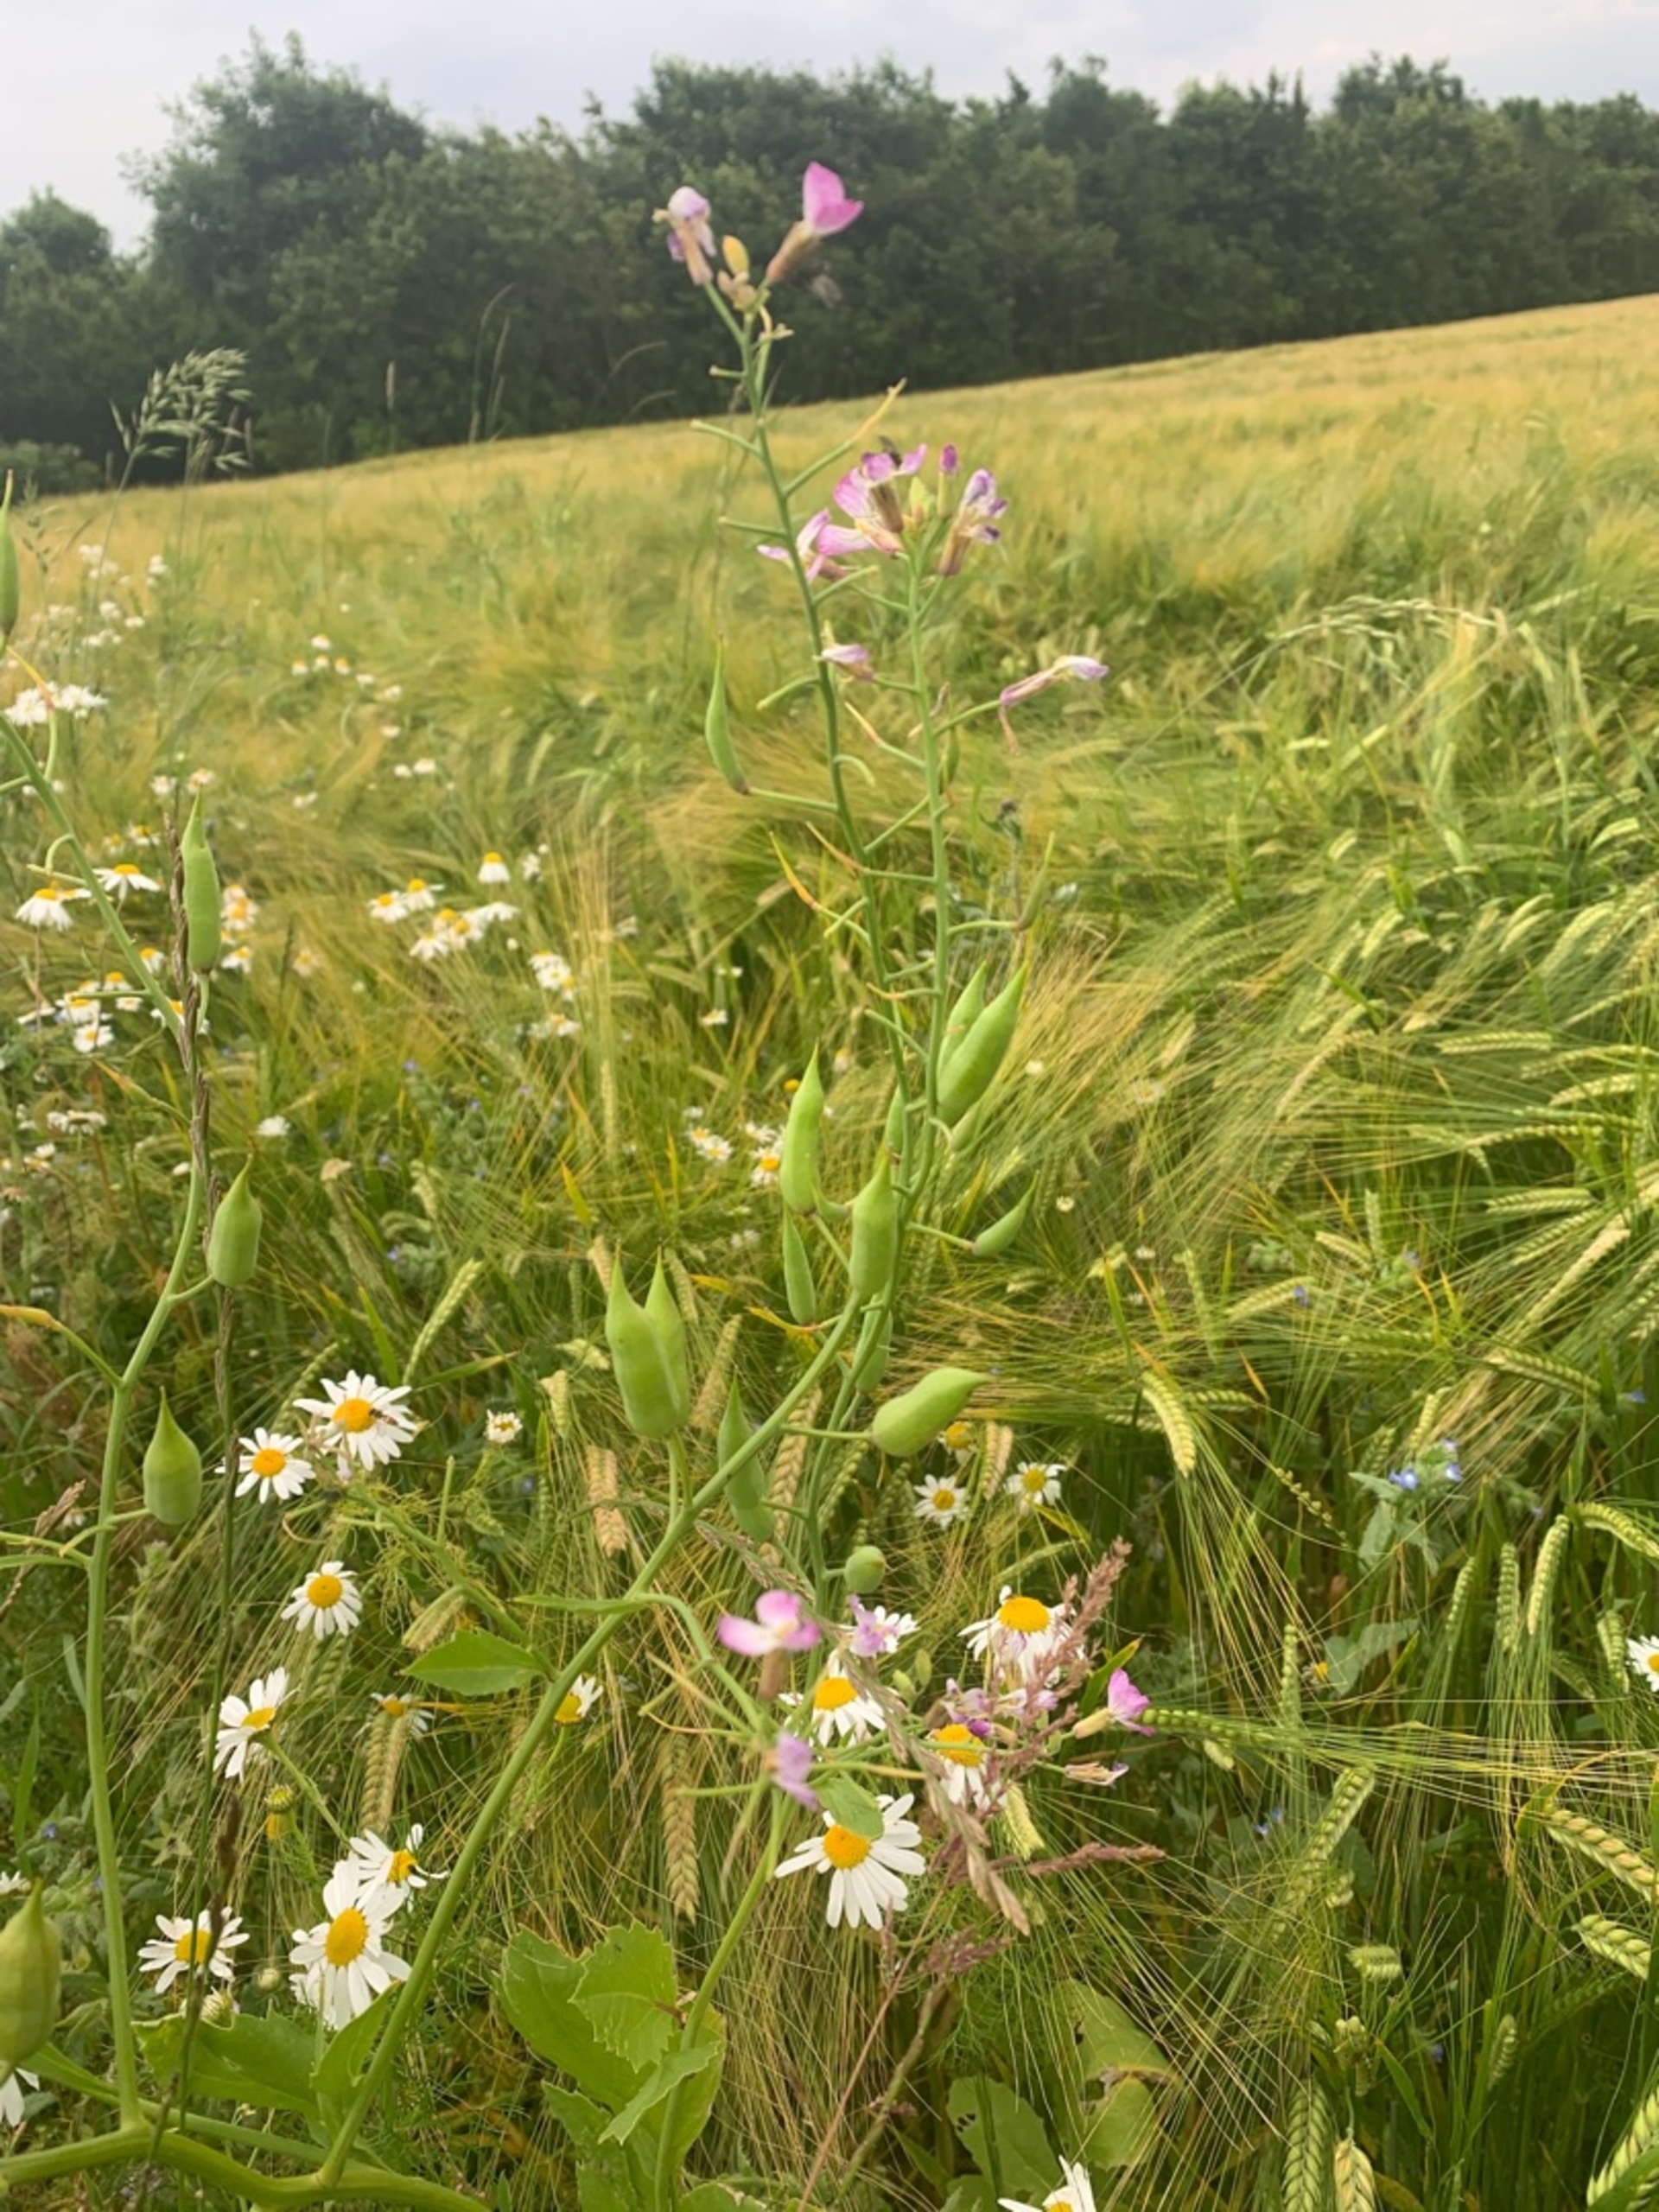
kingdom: Plantae
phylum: Tracheophyta
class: Magnoliopsida
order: Brassicales
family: Brassicaceae
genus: Raphanus
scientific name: Raphanus sativus
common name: Olie-ræddike
